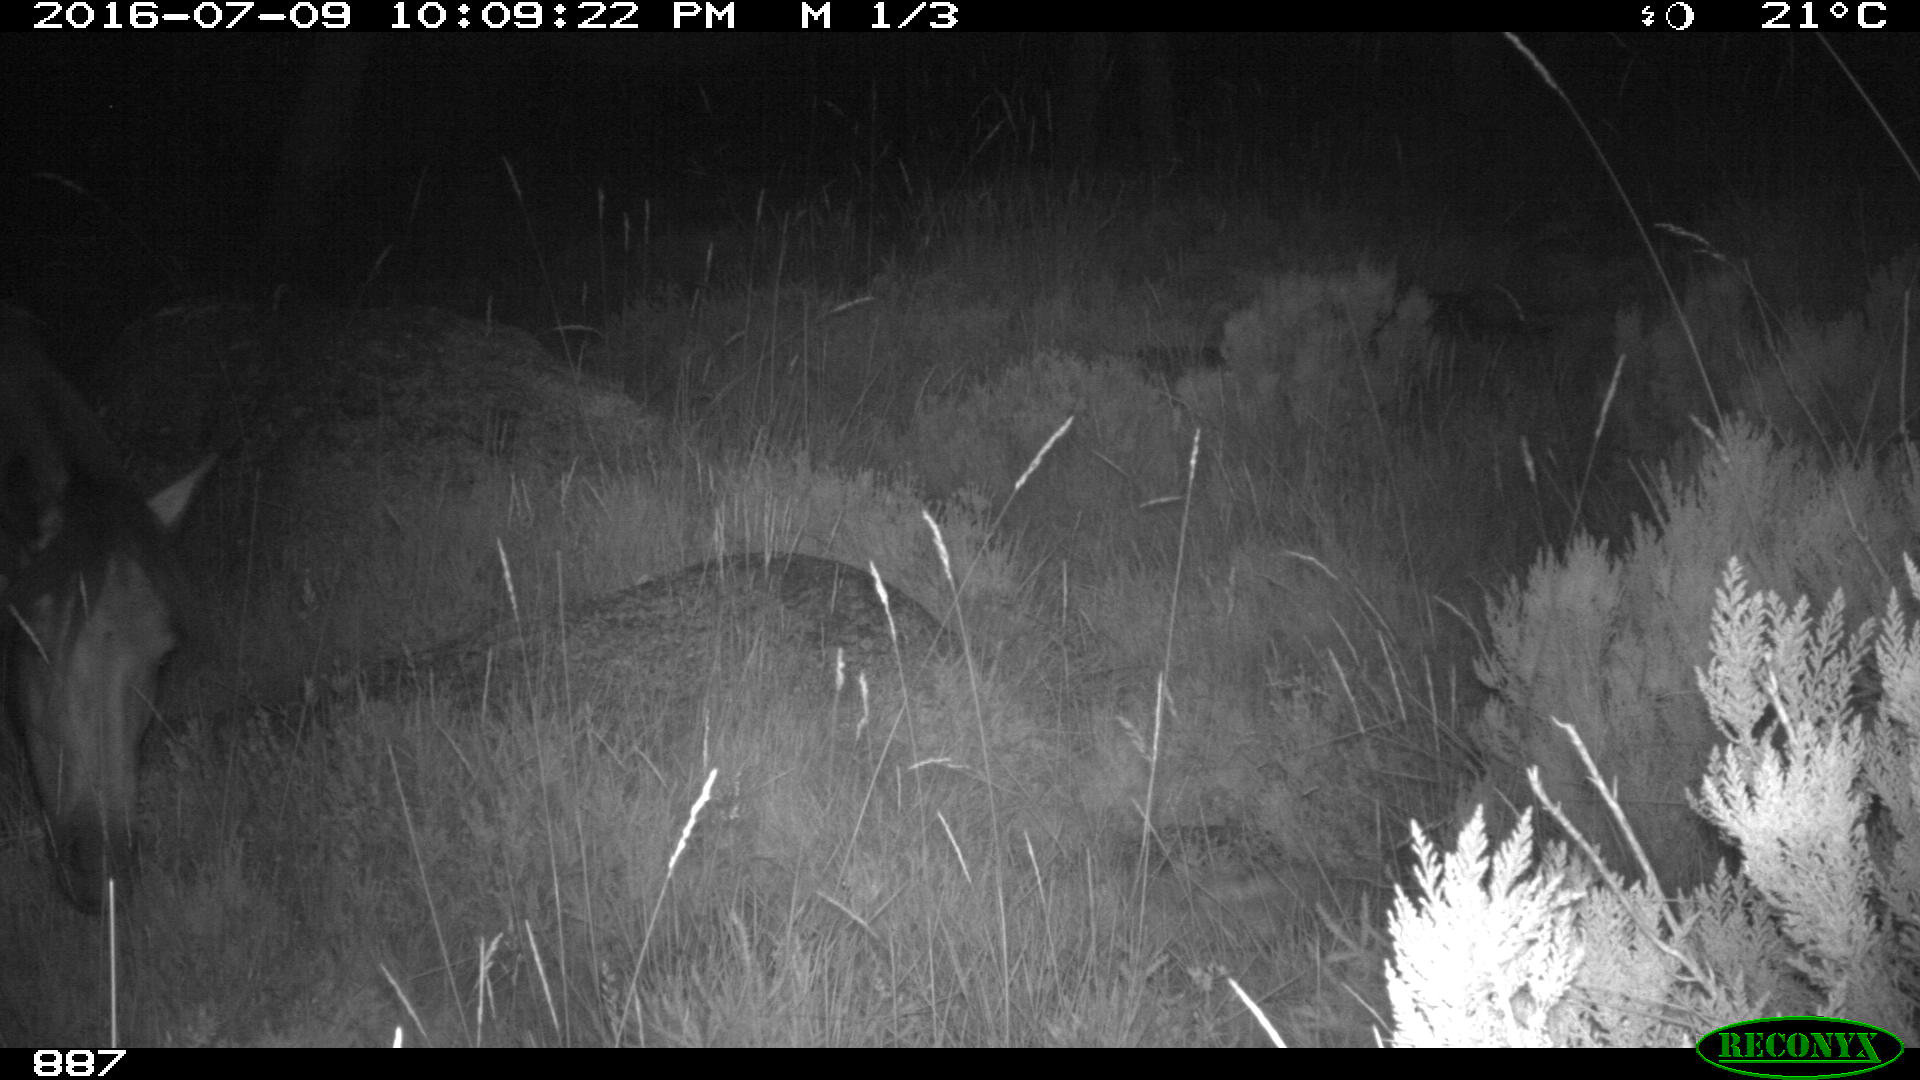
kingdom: Animalia
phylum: Chordata
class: Mammalia
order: Perissodactyla
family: Equidae
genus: Equus
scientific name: Equus caballus
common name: Horse
